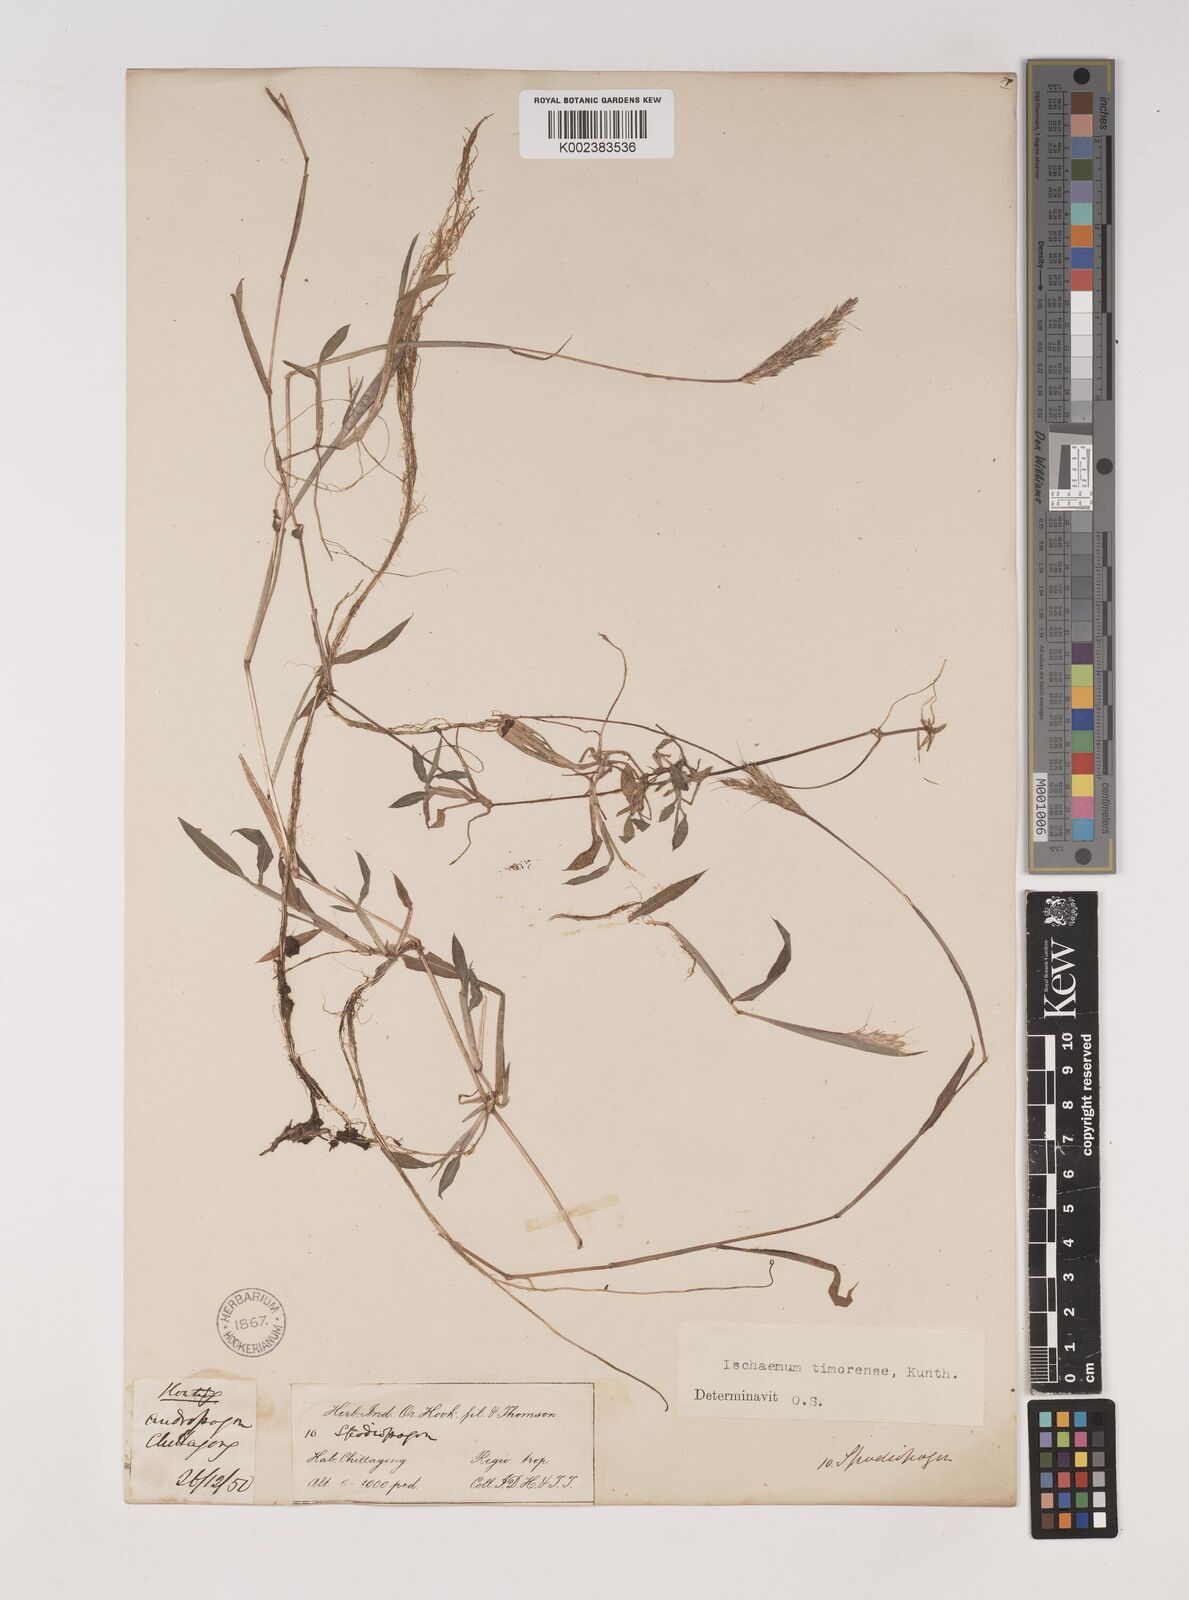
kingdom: Plantae
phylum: Tracheophyta
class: Liliopsida
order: Poales
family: Poaceae
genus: Ischaemum
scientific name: Ischaemum timorense
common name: Stalkleaf murainagrass
